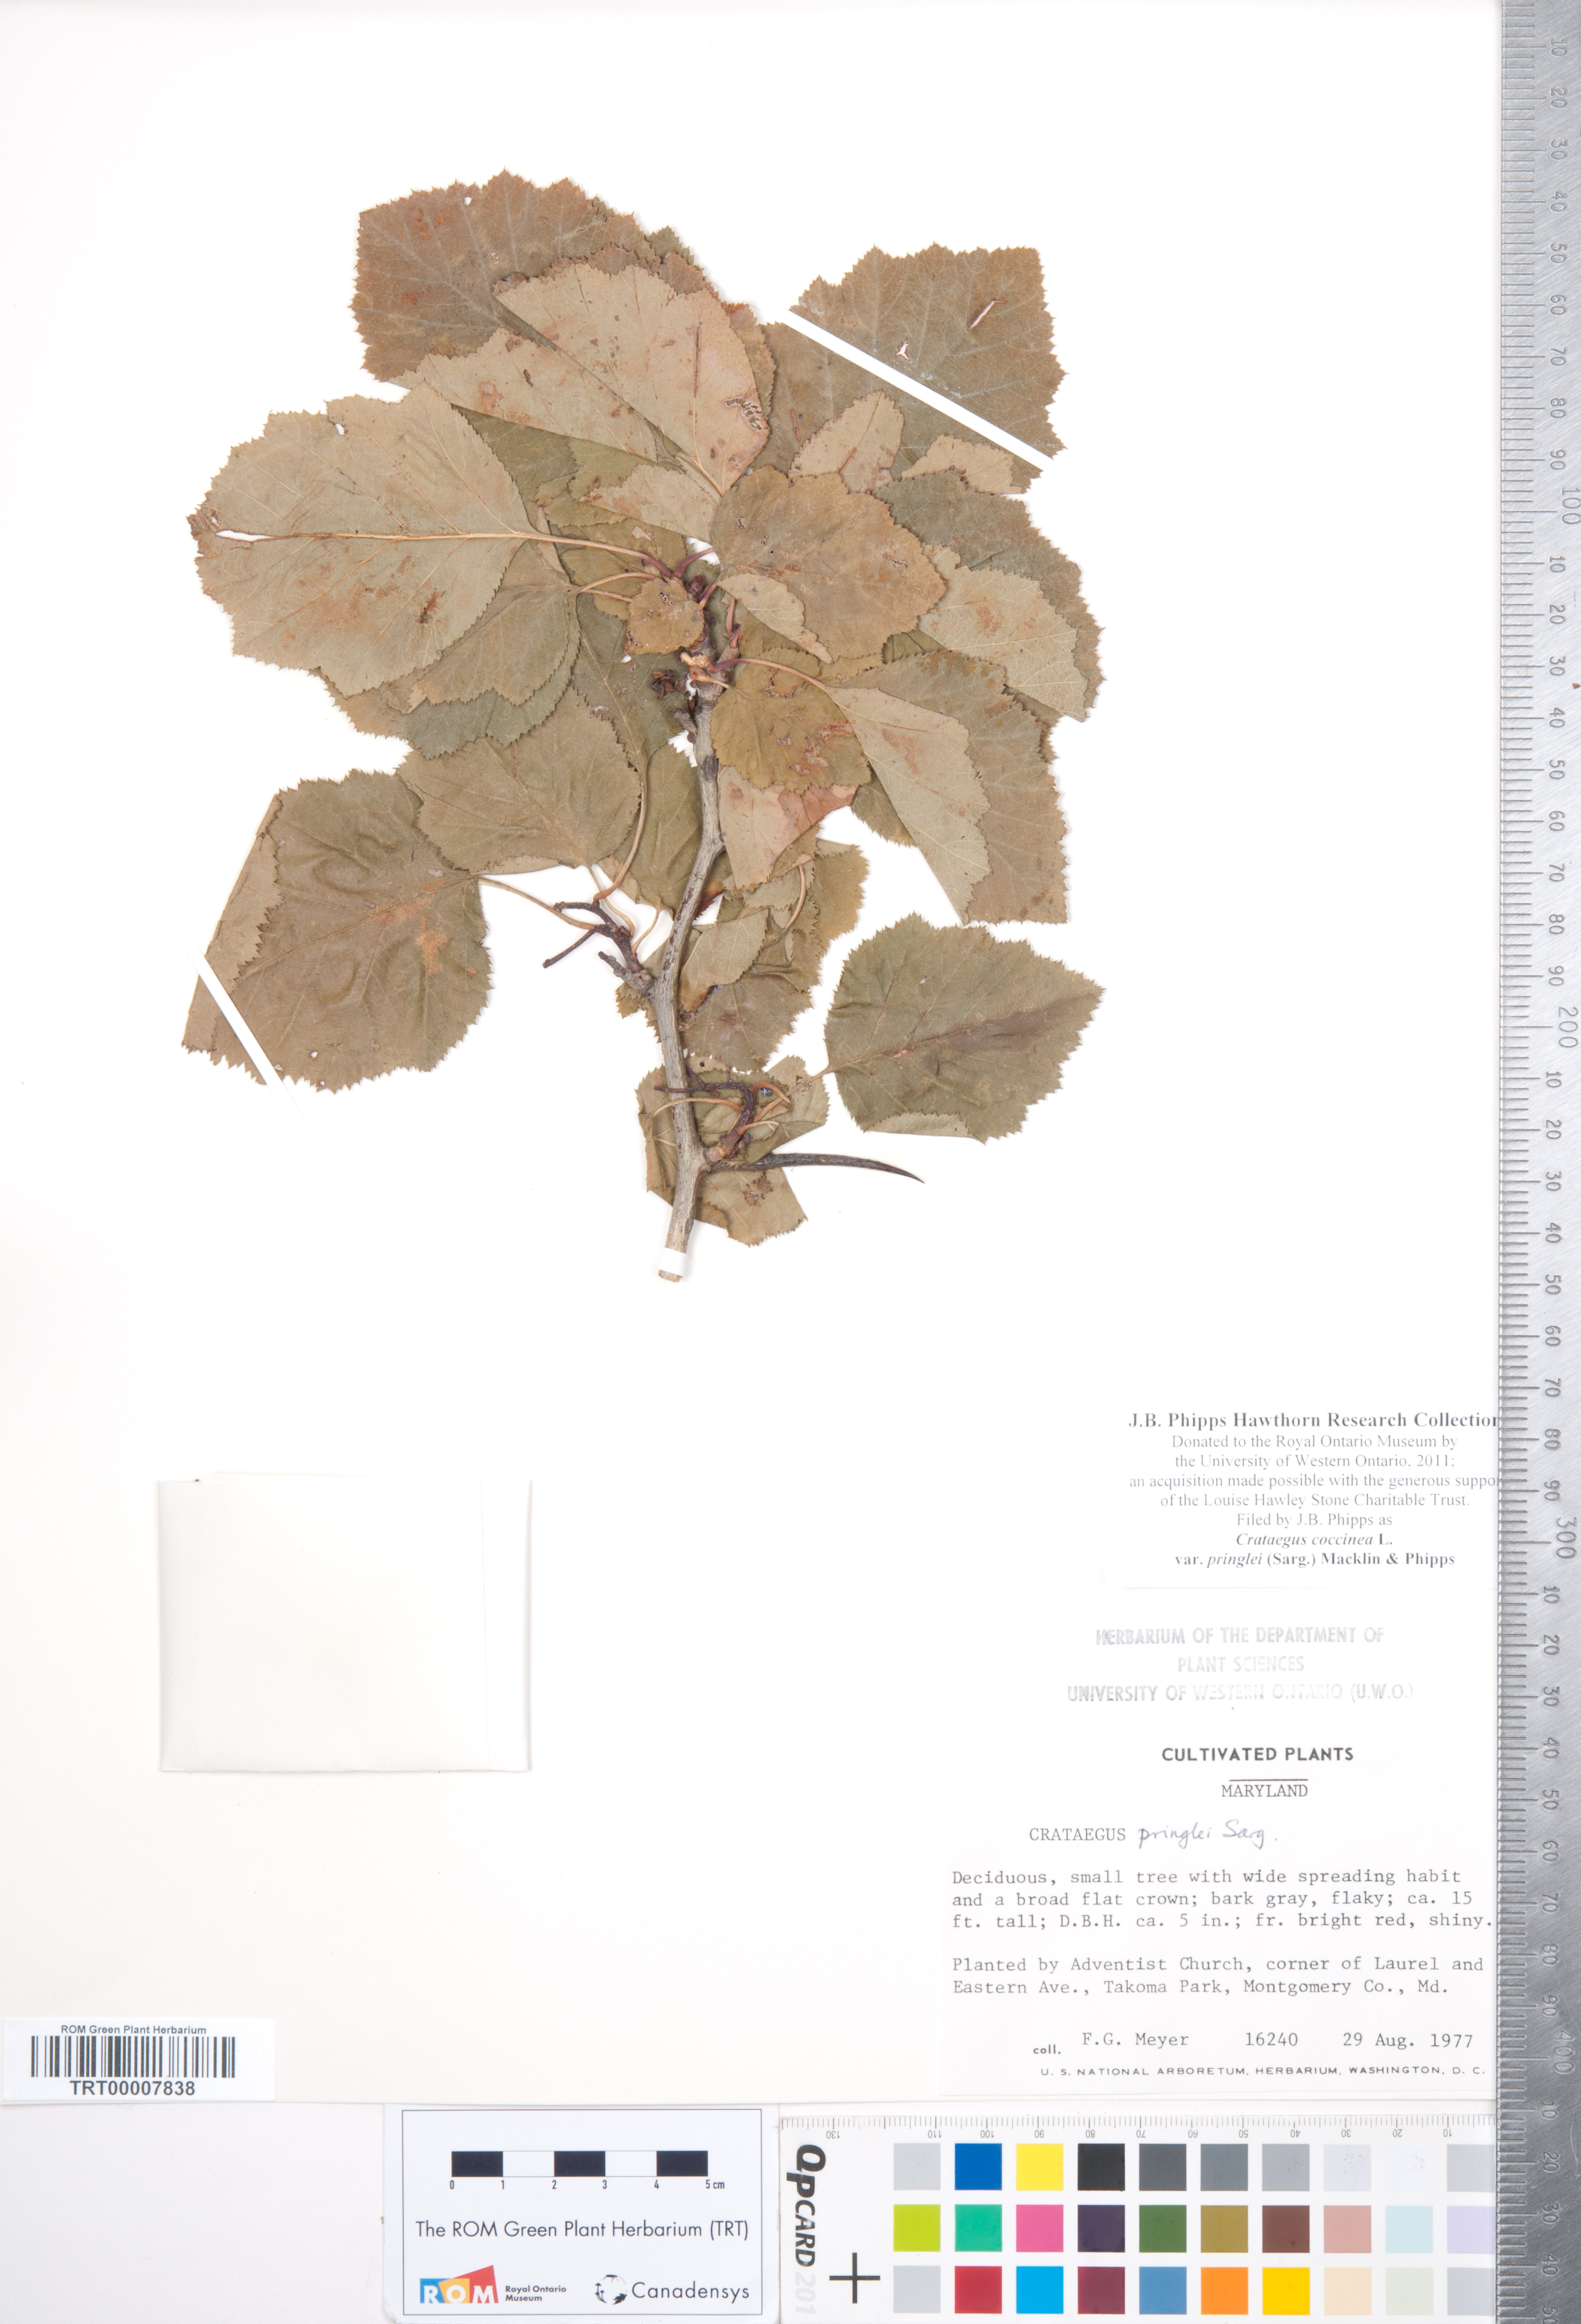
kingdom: Plantae
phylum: Tracheophyta
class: Magnoliopsida
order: Rosales
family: Rosaceae
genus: Crataegus
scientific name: Crataegus coccinea
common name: Scarlet hawthorn
